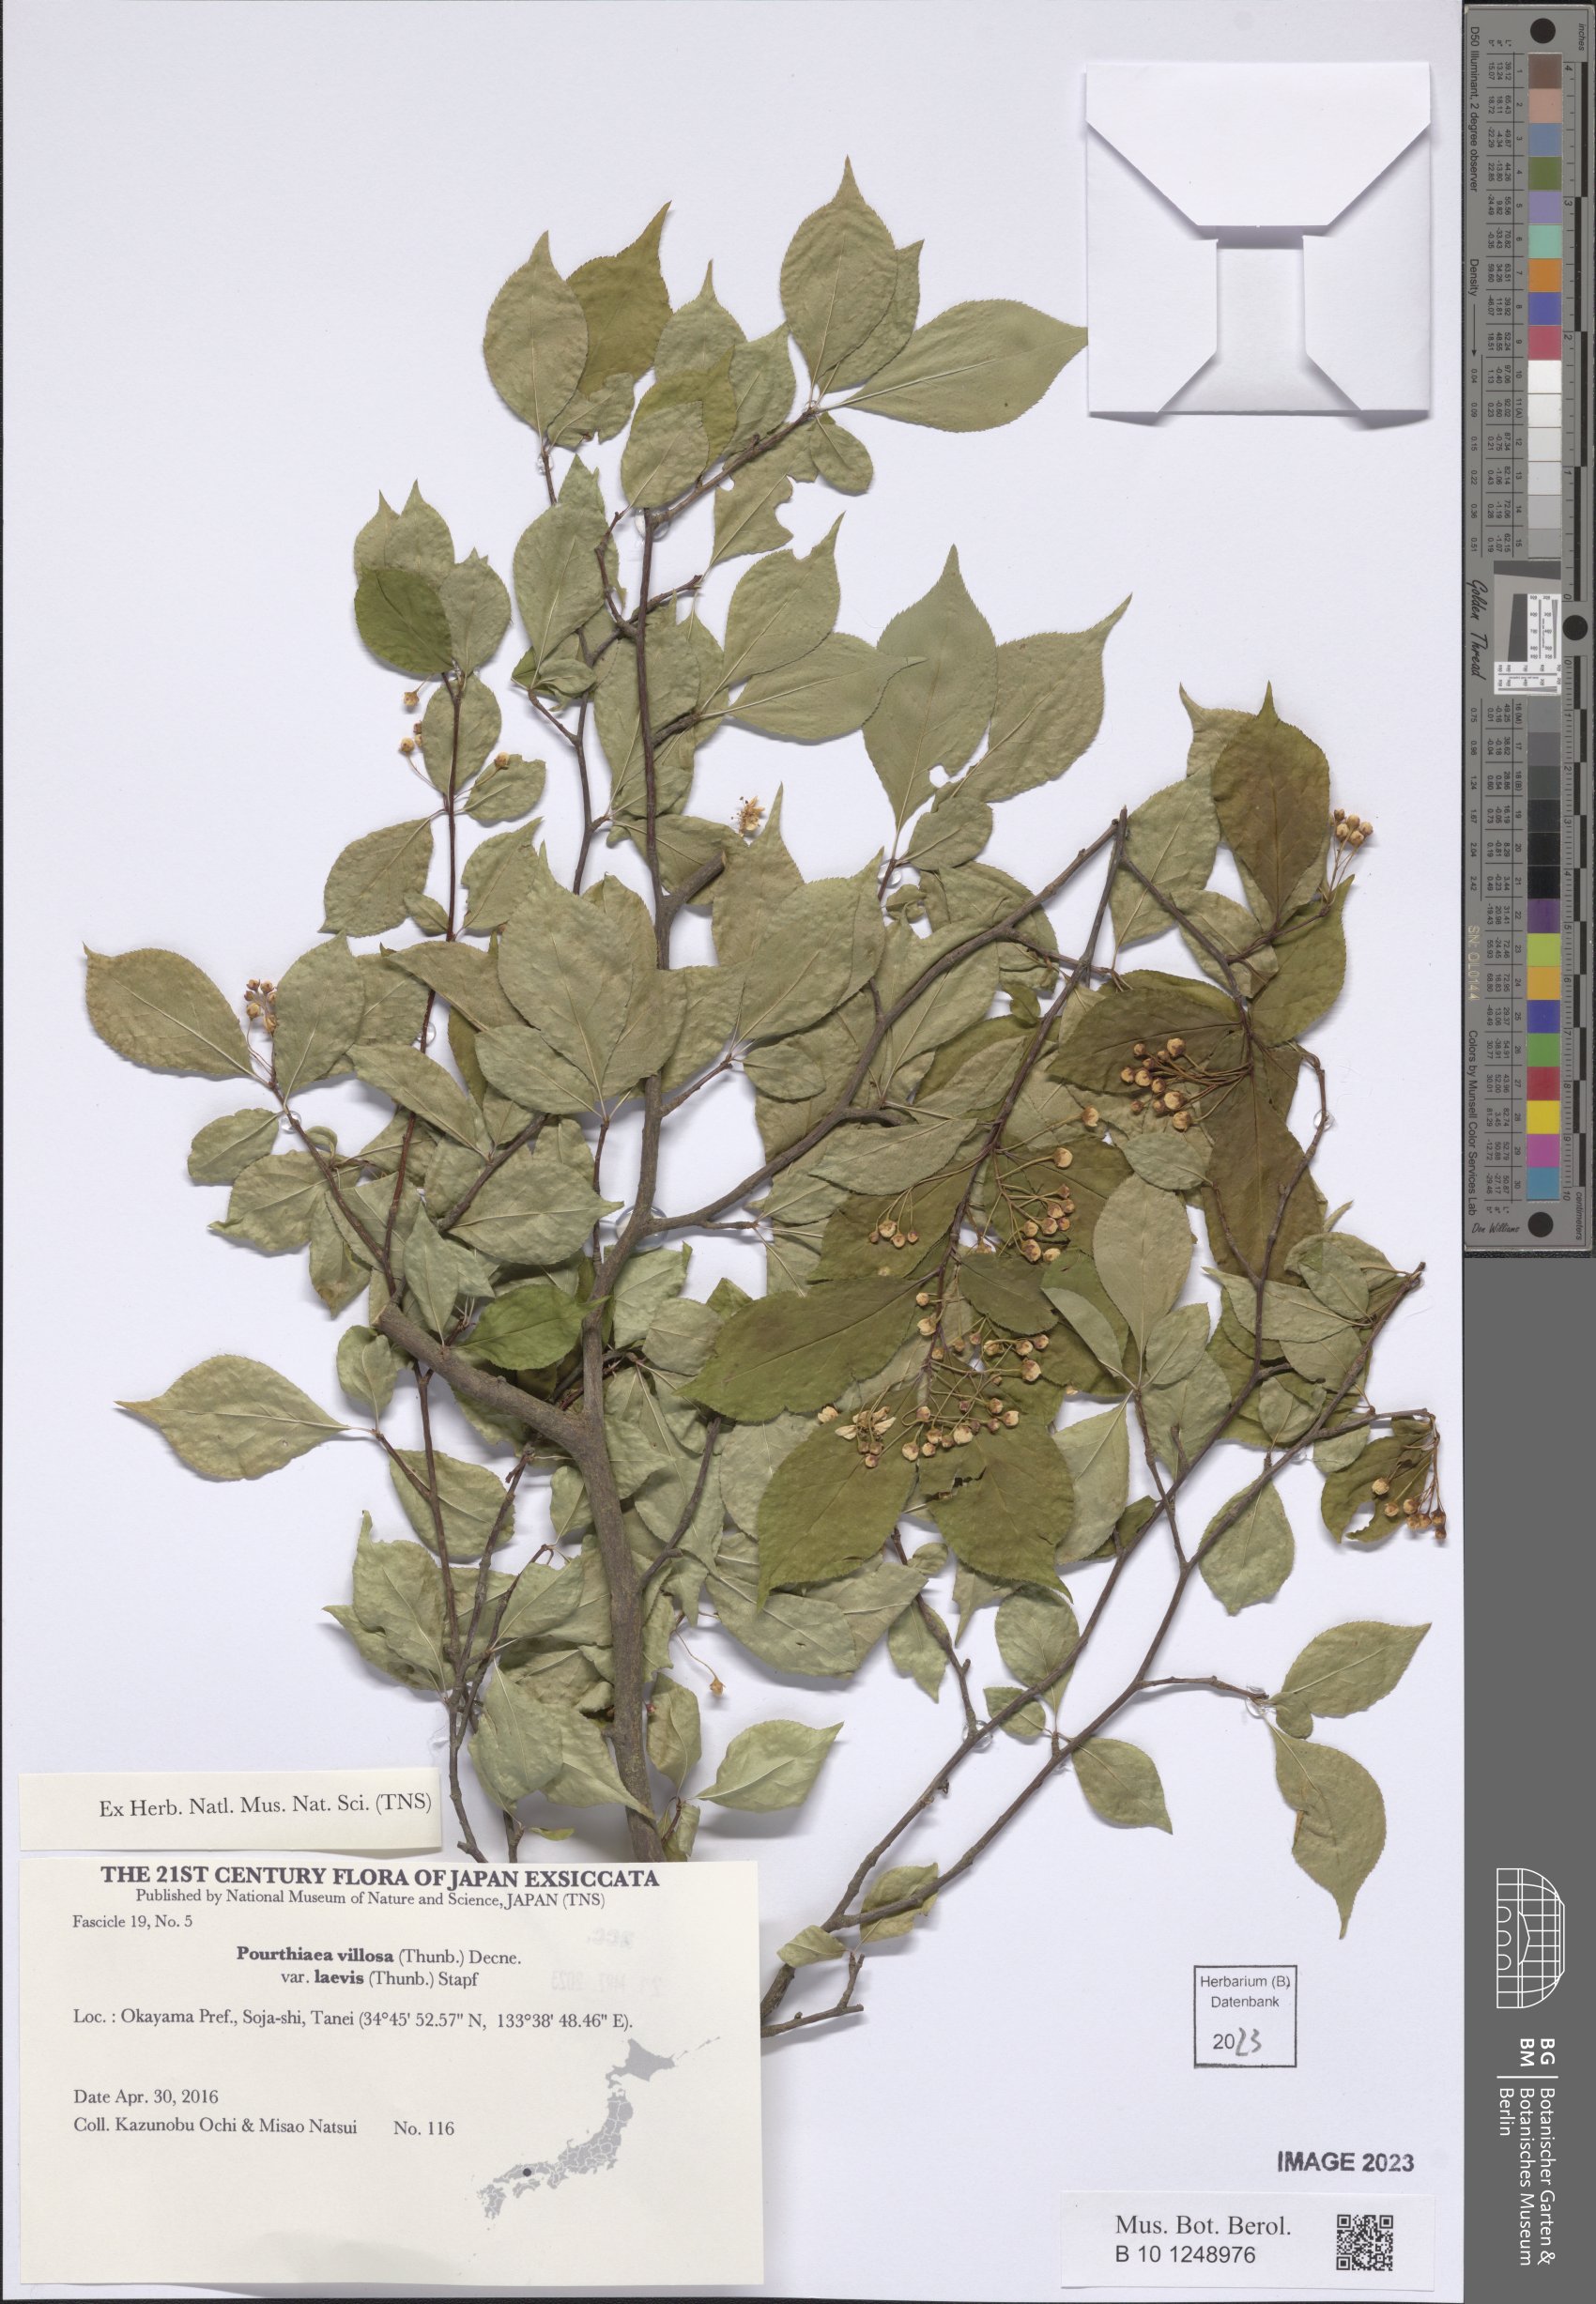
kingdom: Plantae
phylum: Tracheophyta
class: Magnoliopsida
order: Rosales
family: Rosaceae
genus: Pourthiaea
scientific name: Pourthiaea villosa
